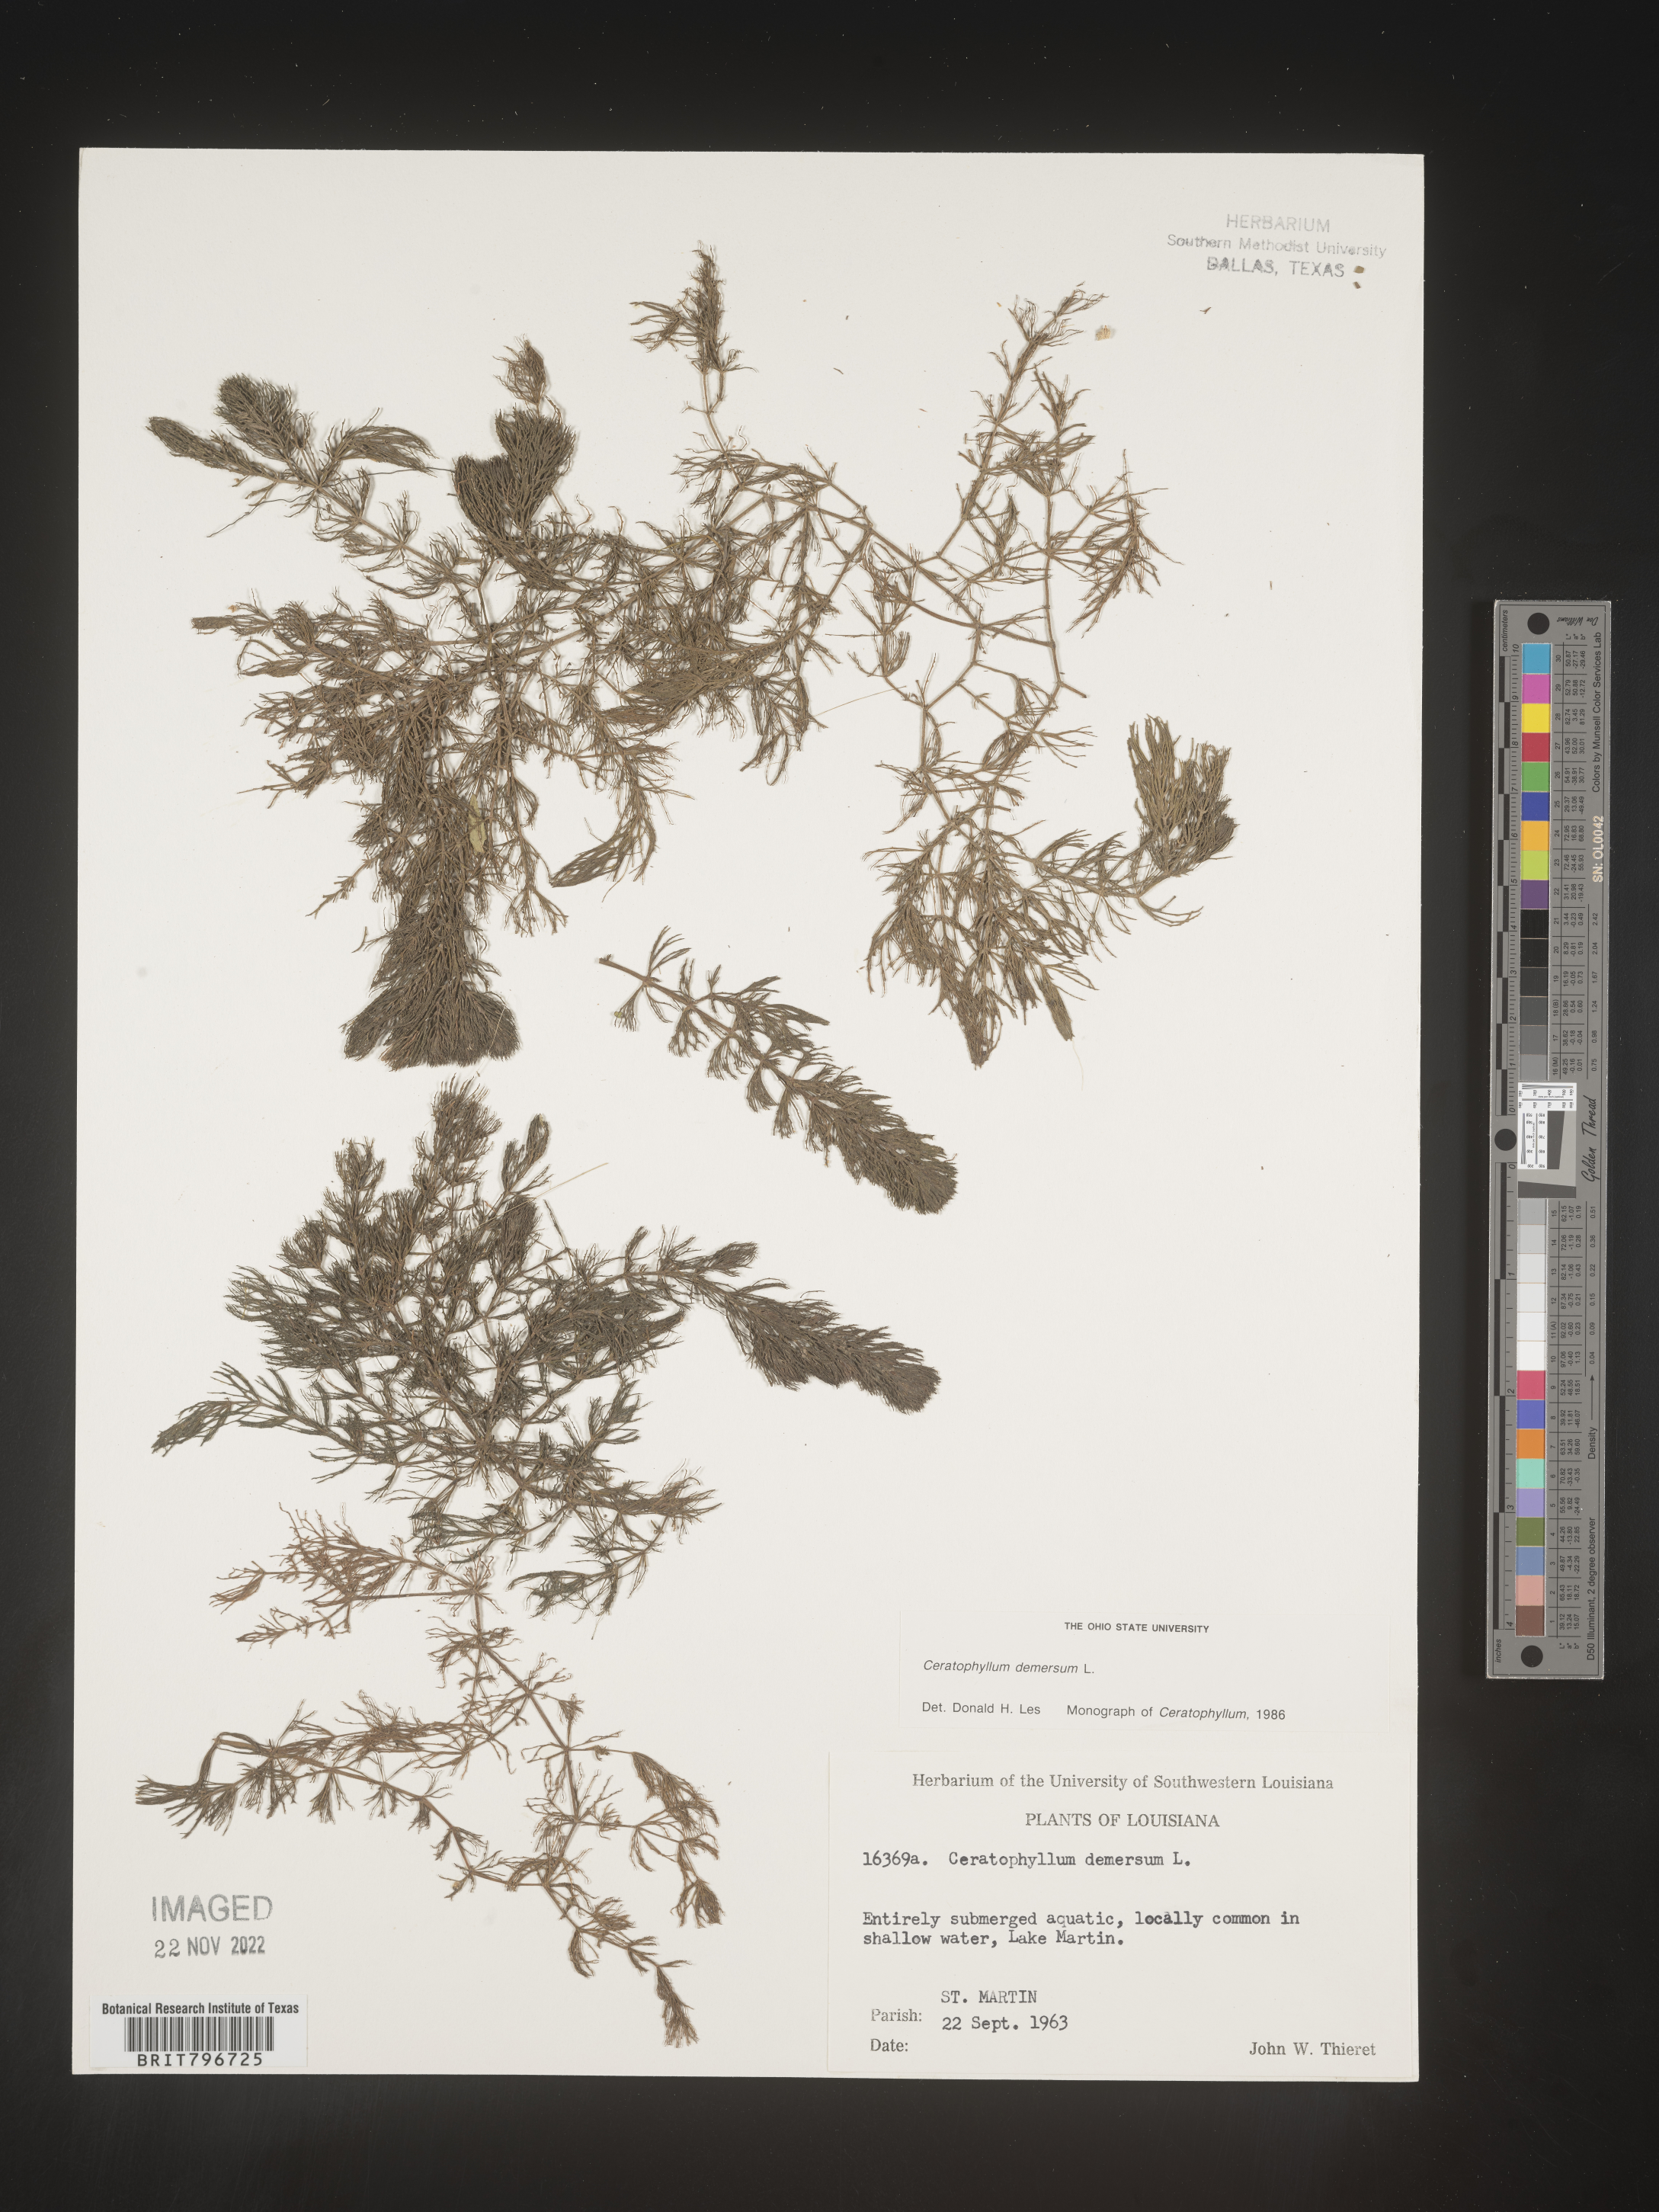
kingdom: Plantae
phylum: Tracheophyta
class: Magnoliopsida
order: Ceratophyllales
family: Ceratophyllaceae
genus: Ceratophyllum
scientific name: Ceratophyllum demersum
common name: Rigid hornwort
